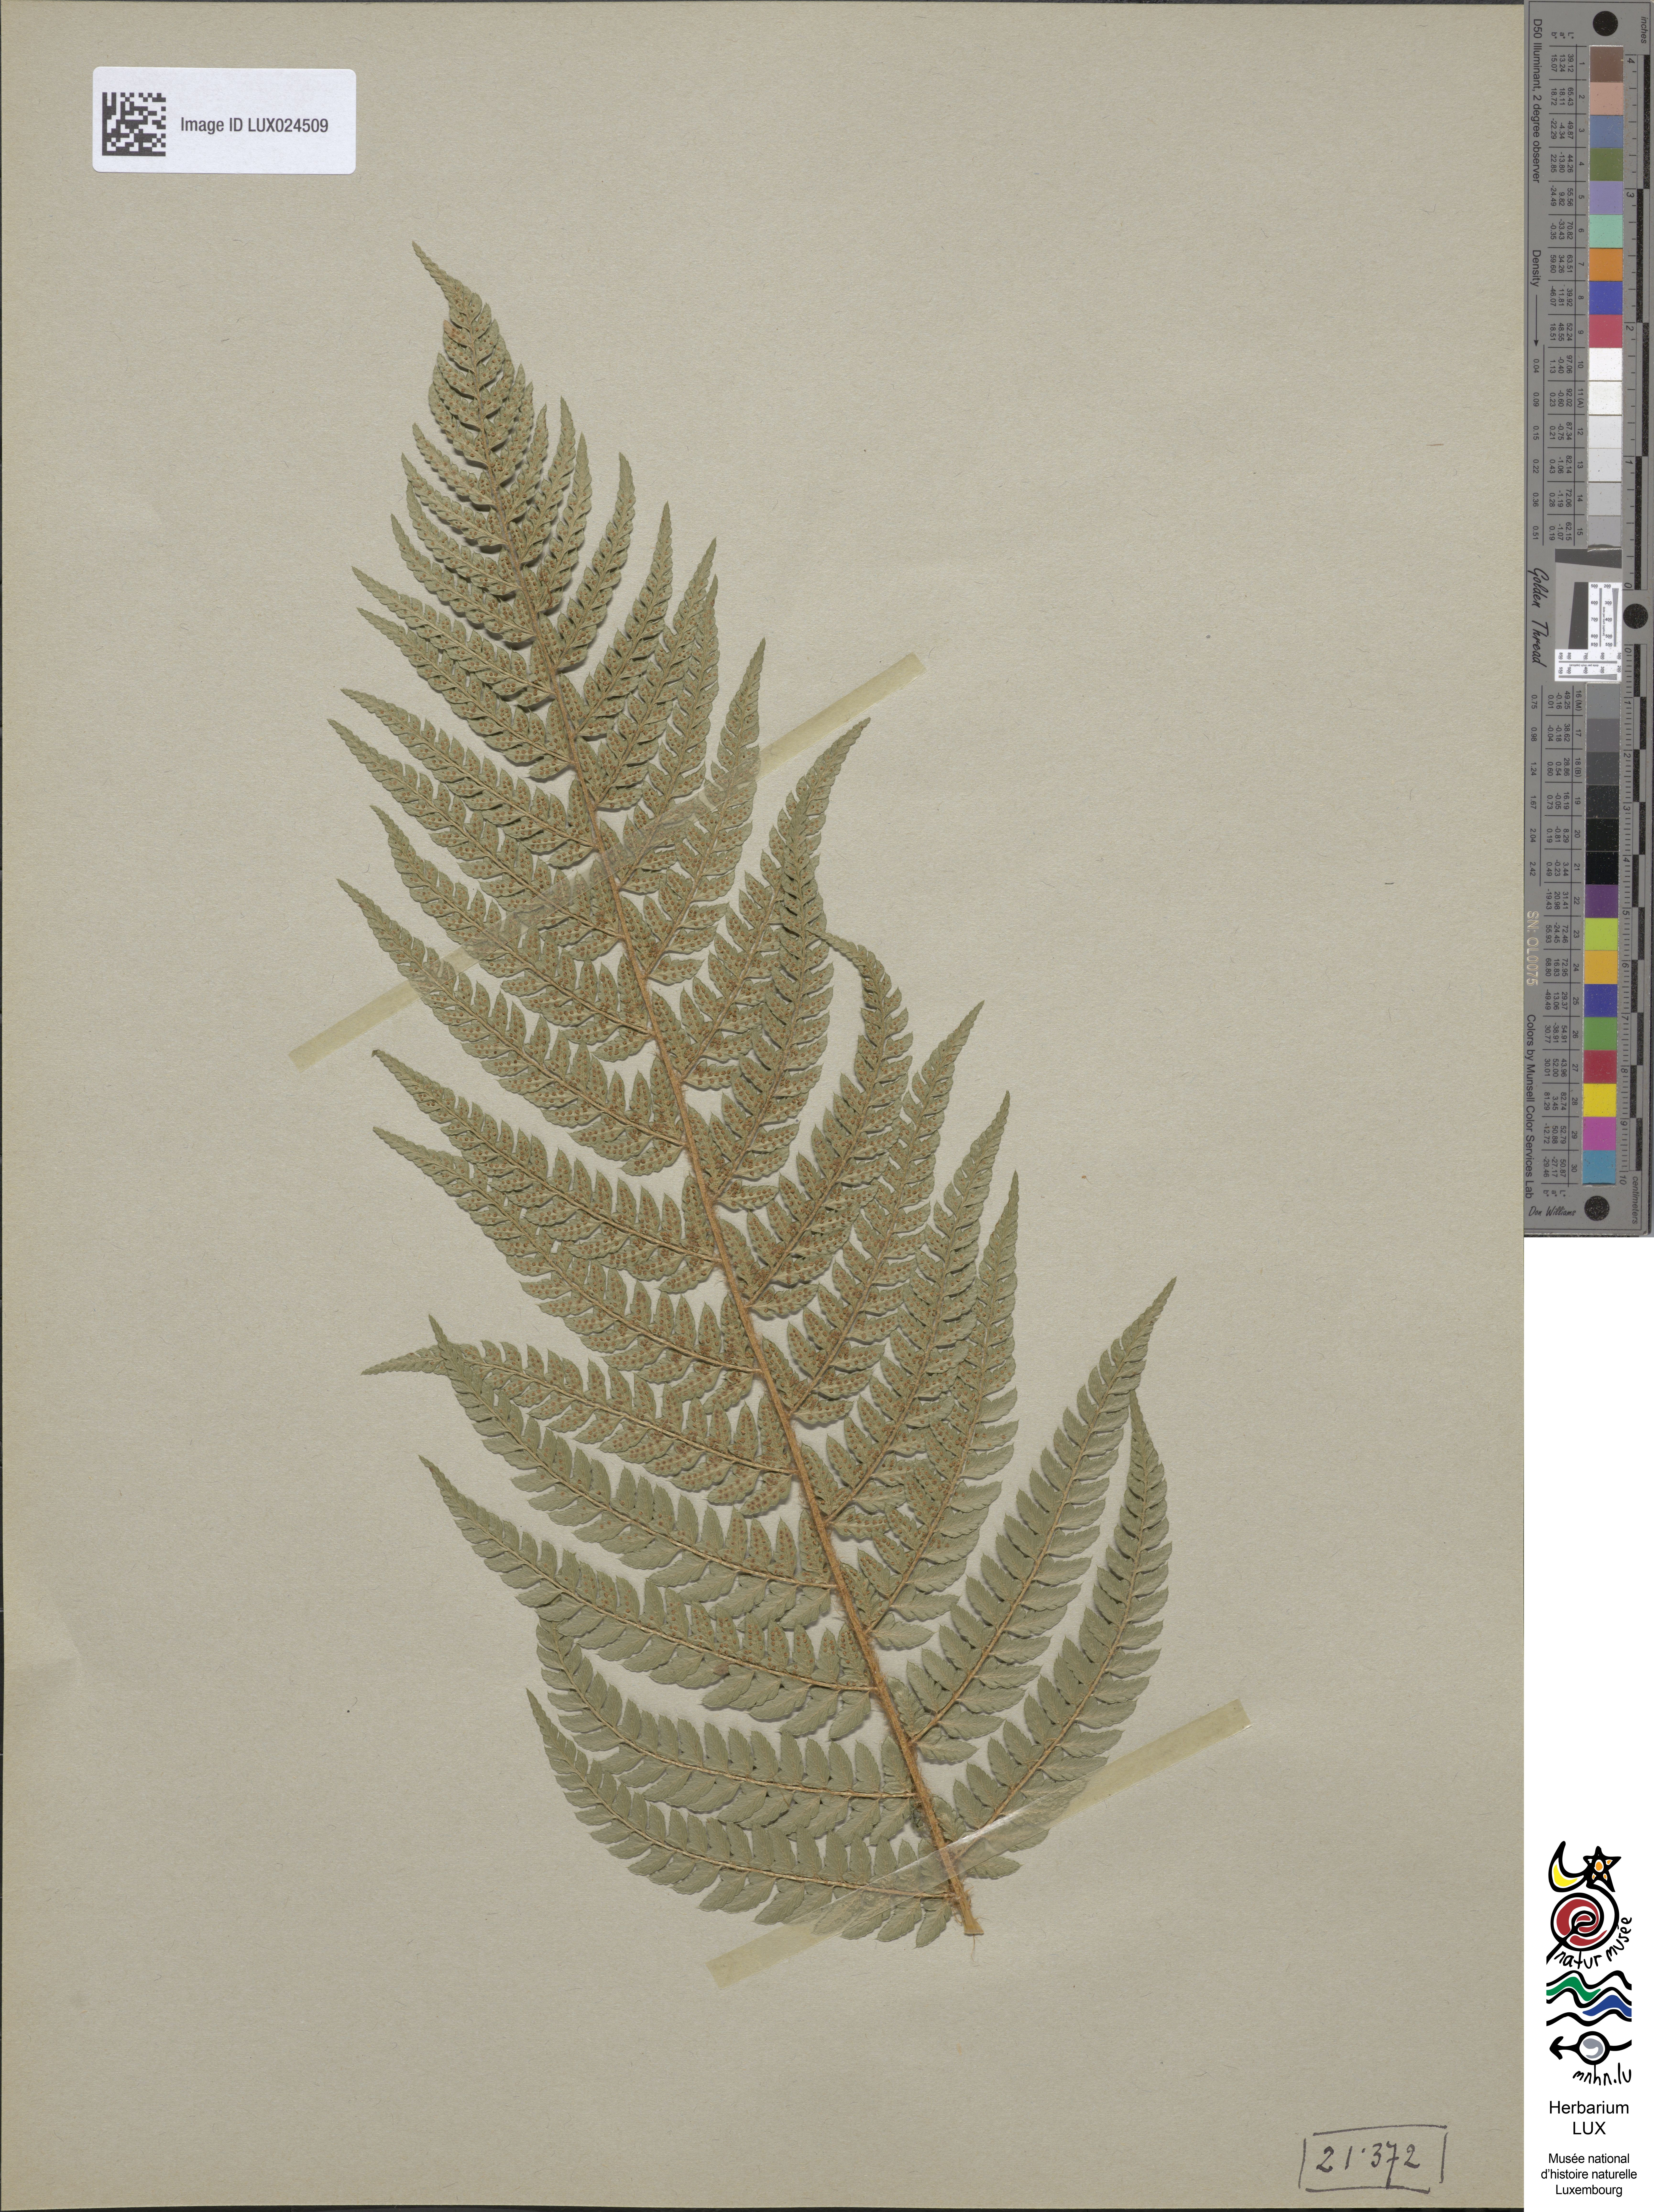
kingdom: Plantae
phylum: Tracheophyta
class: Polypodiopsida
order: Polypodiales
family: Dryopteridaceae
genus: Polystichum
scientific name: Polystichum setiferum
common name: Soft shield-fern
